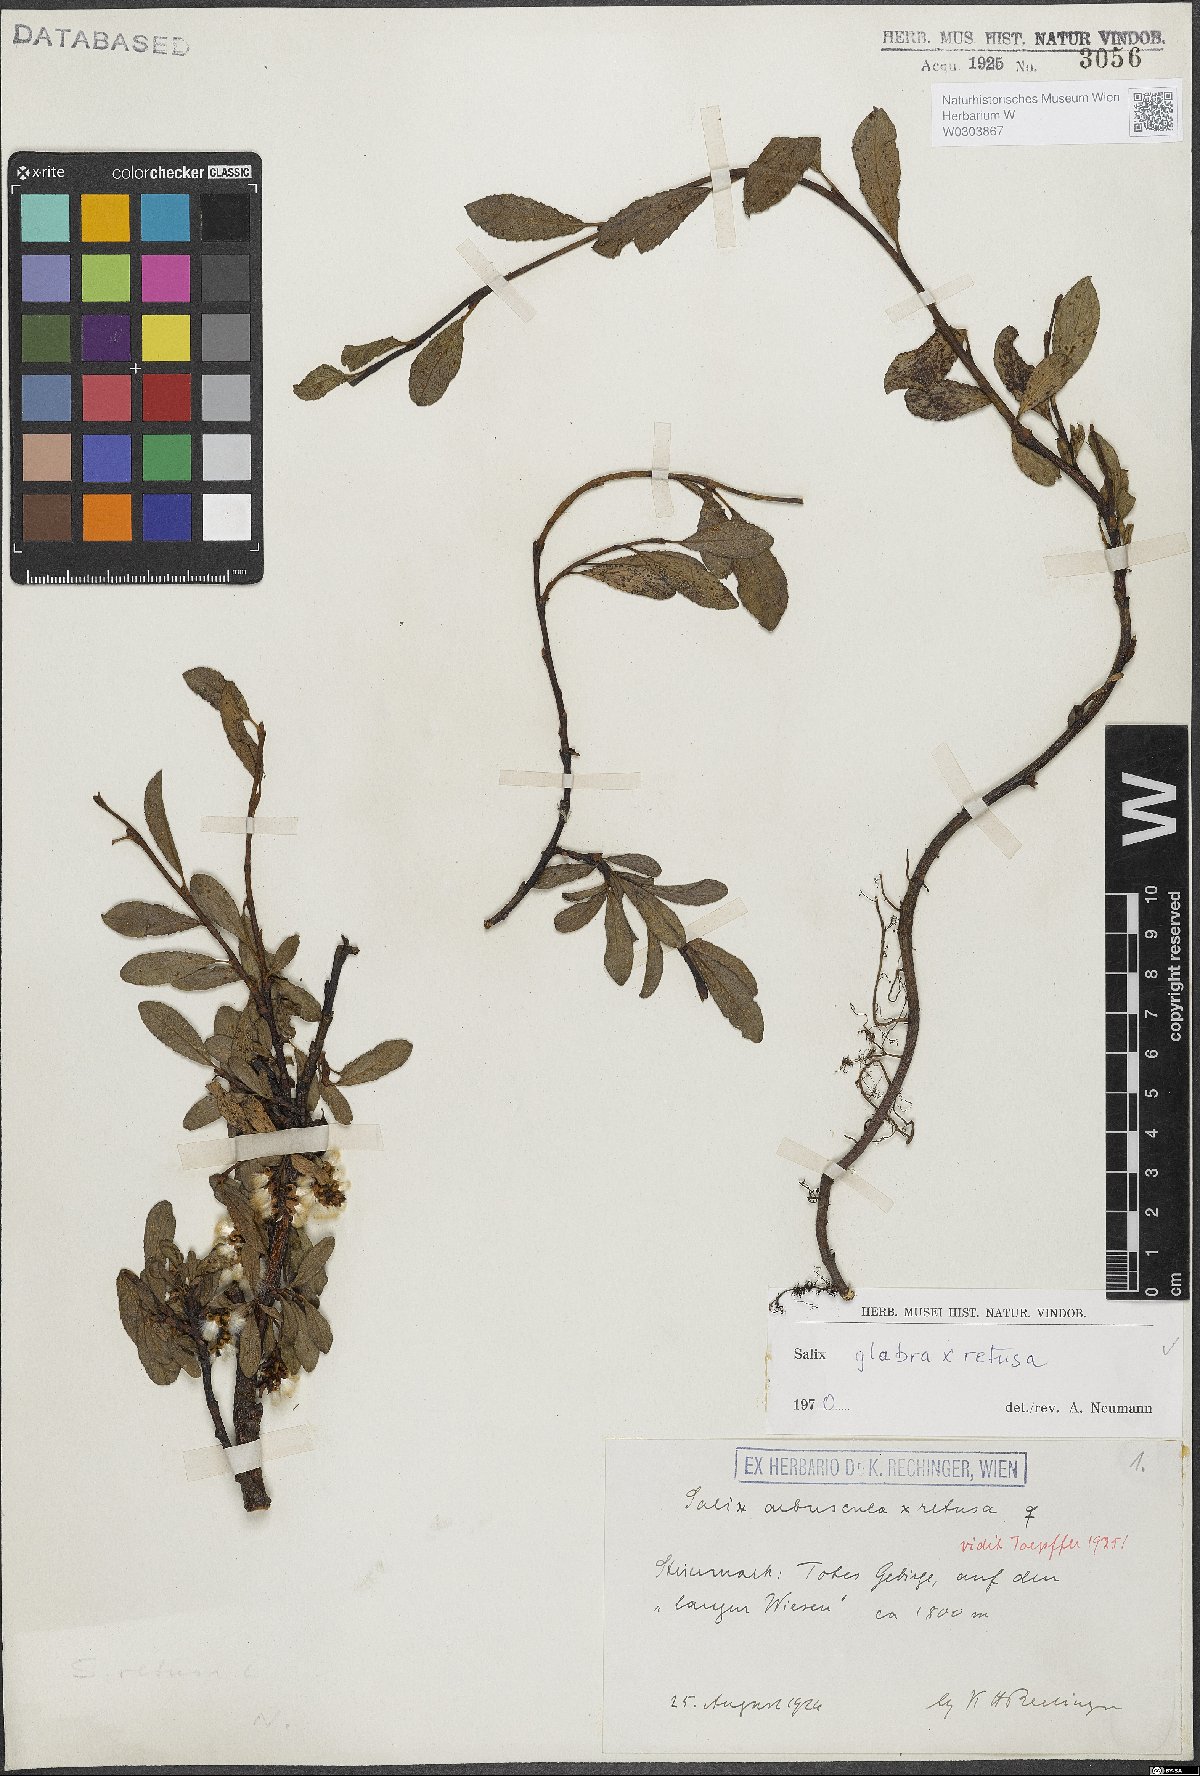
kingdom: Plantae
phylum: Tracheophyta
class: Magnoliopsida
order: Malpighiales
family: Salicaceae
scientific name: Salicaceae
